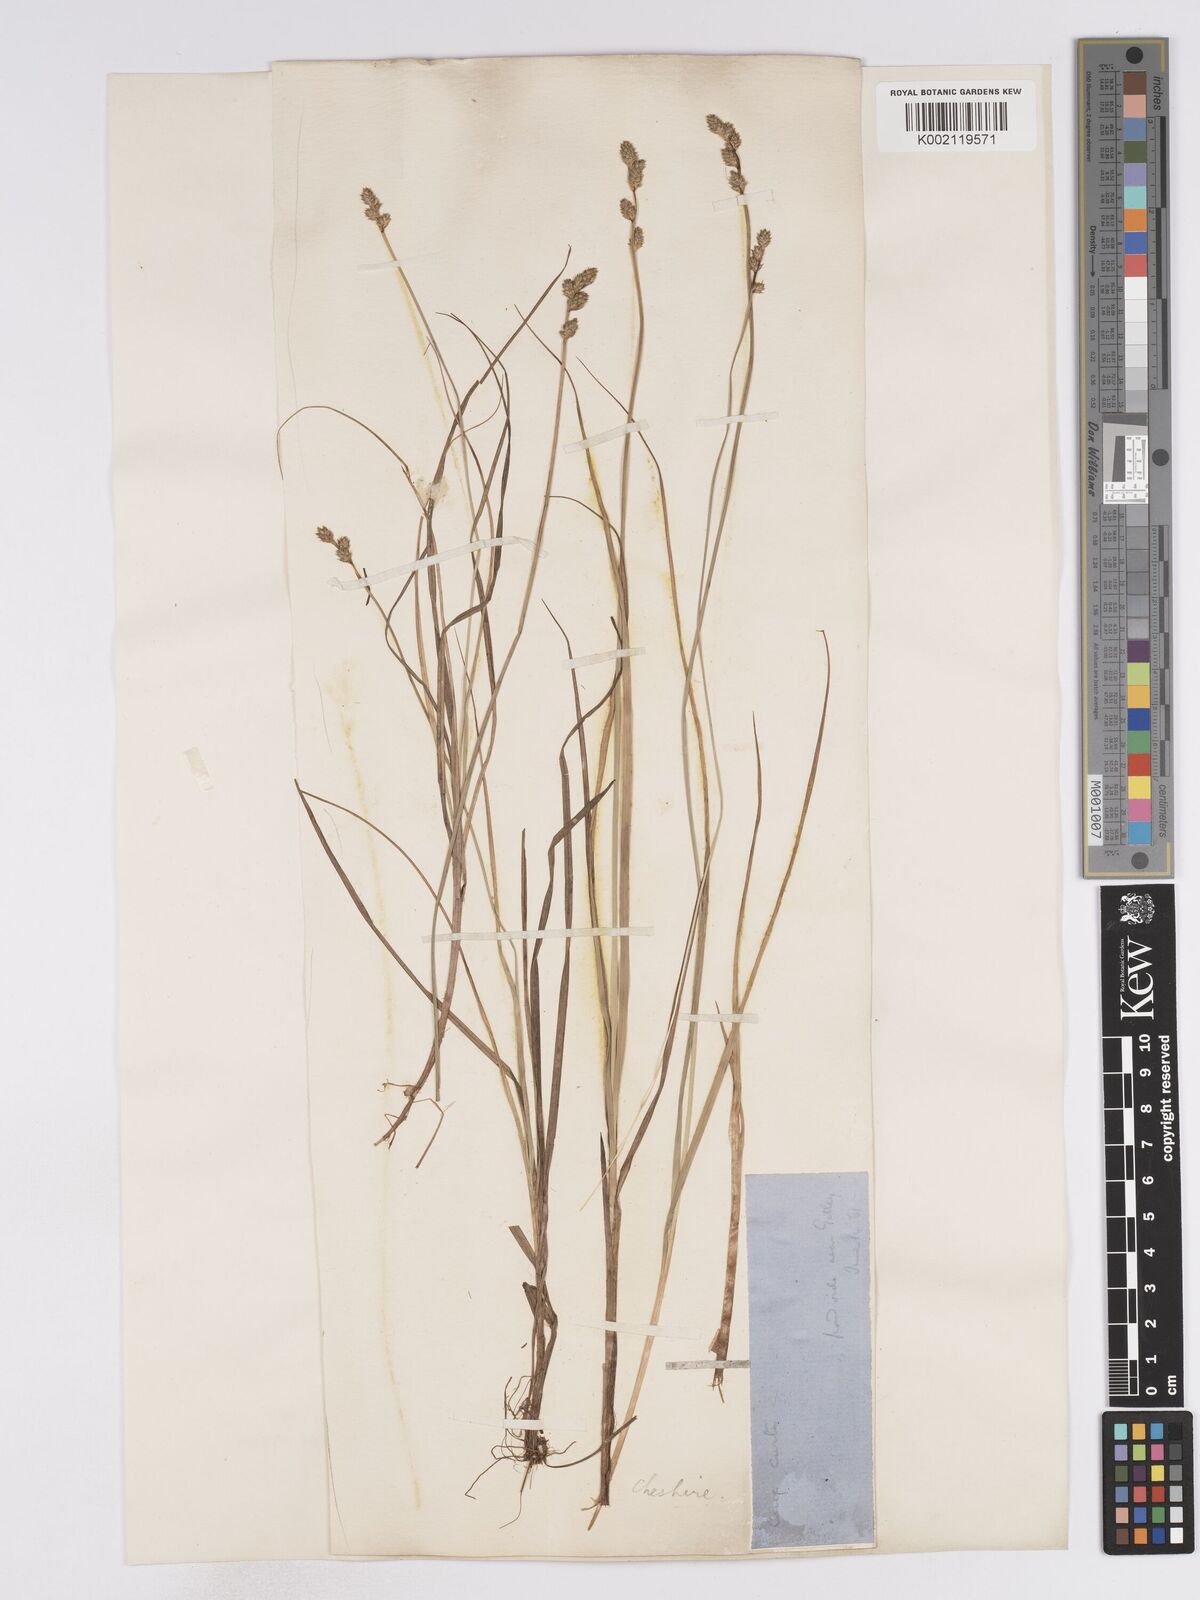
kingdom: Plantae
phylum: Tracheophyta
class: Liliopsida
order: Poales
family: Cyperaceae
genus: Carex
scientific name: Carex curta
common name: White sedge
